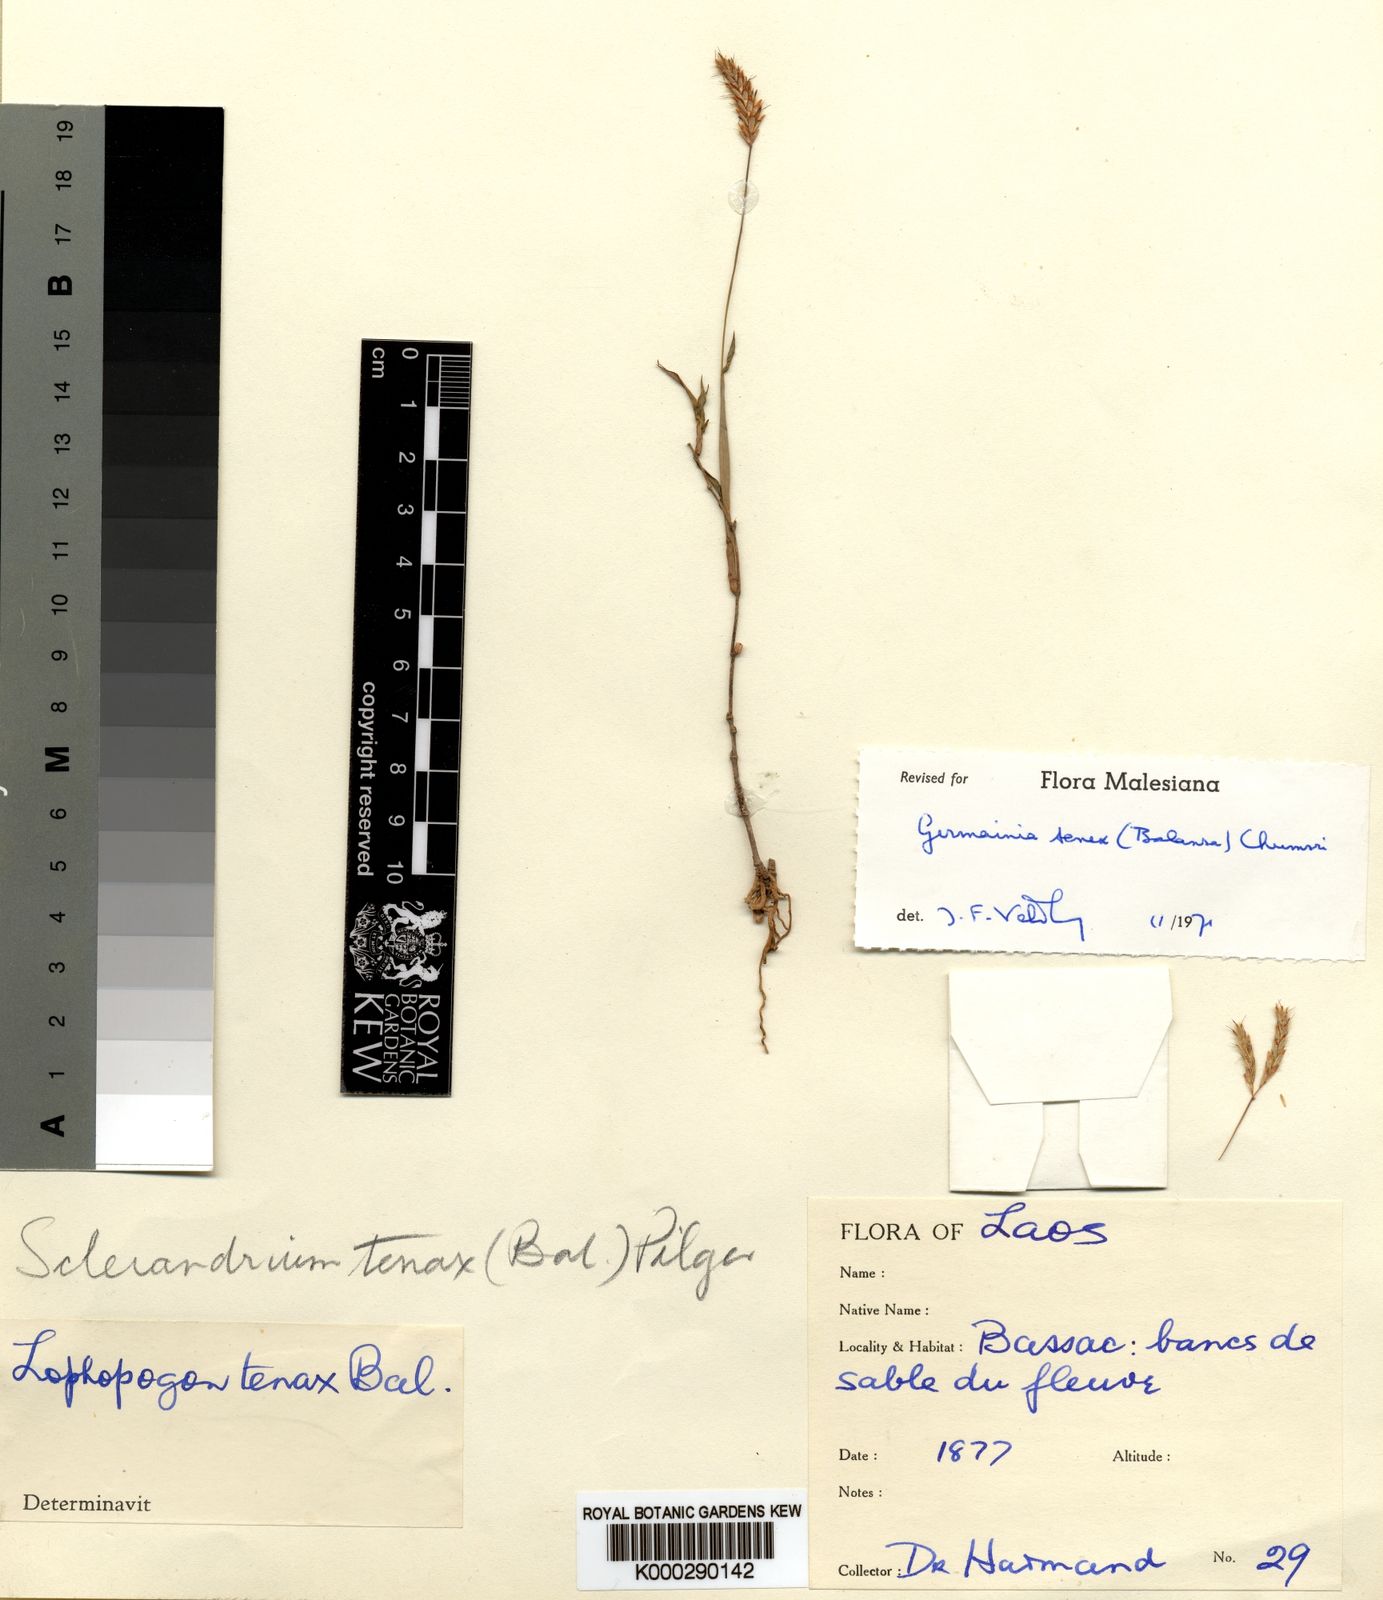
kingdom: Plantae
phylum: Tracheophyta
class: Liliopsida
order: Poales
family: Poaceae
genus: Germainia
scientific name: Germainia tenax
